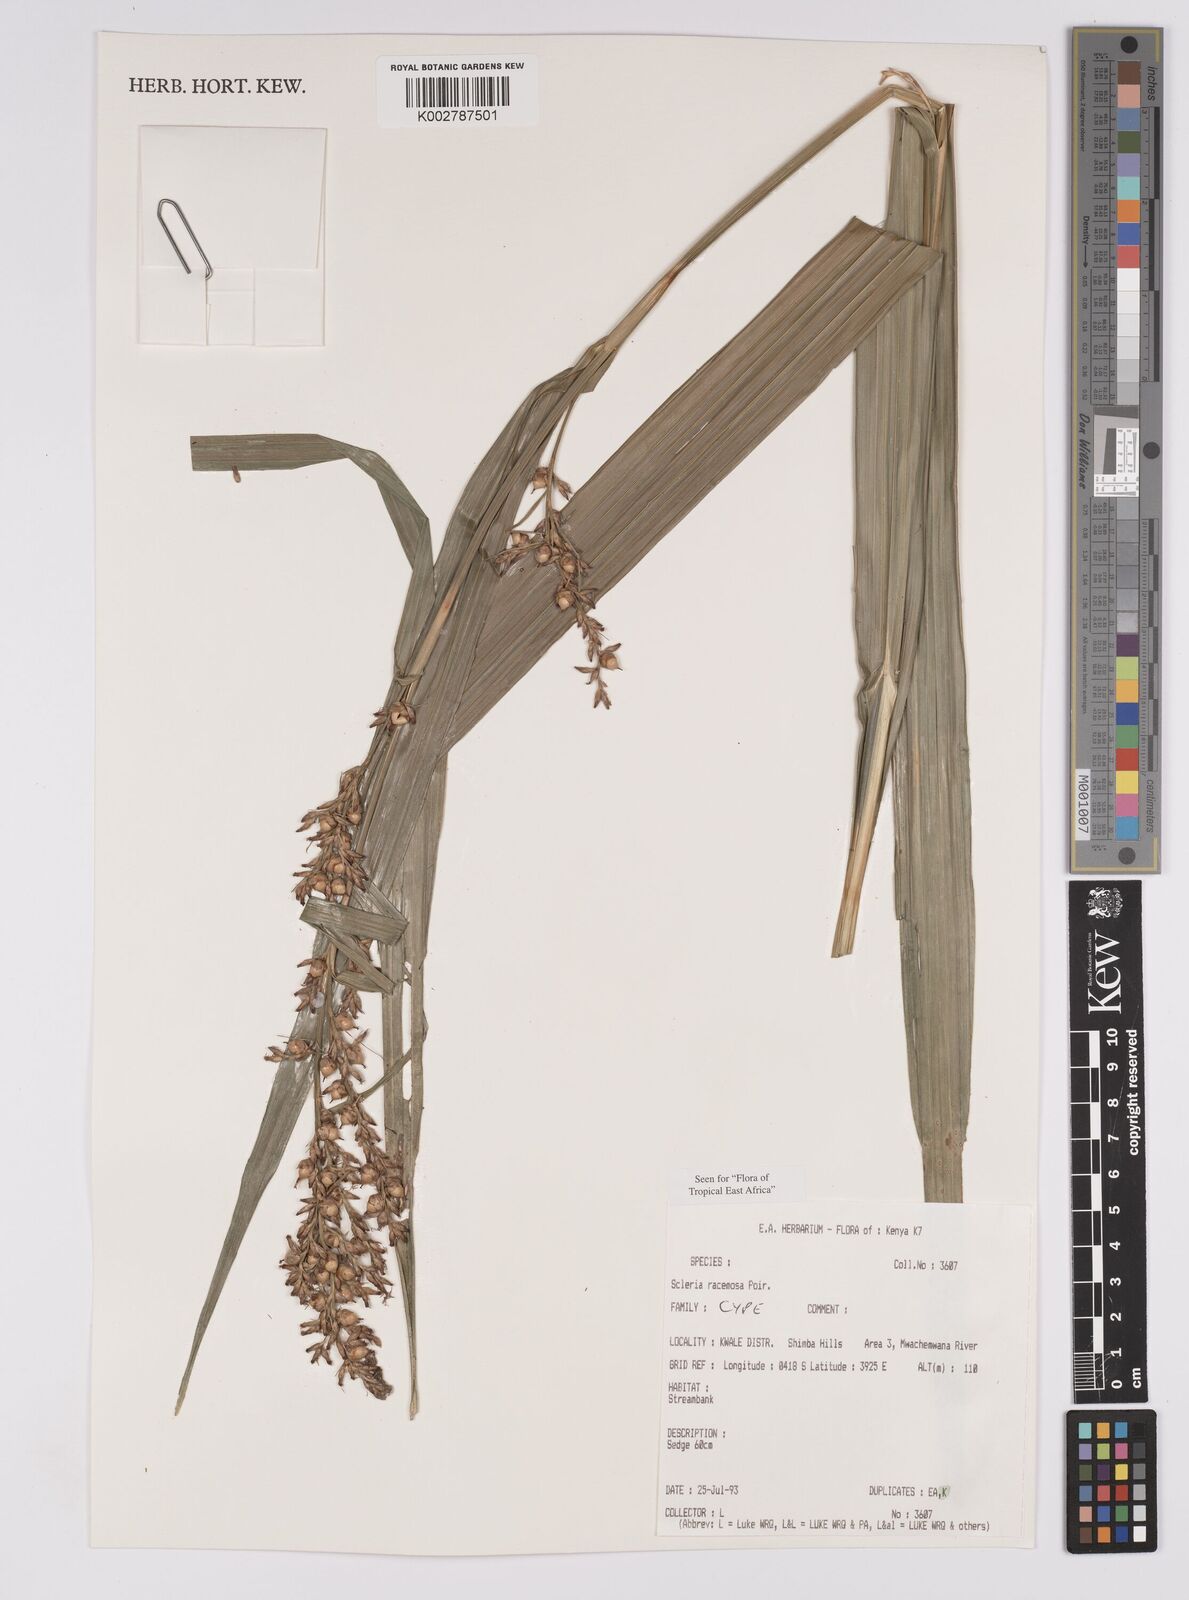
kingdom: Plantae
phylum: Tracheophyta
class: Liliopsida
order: Poales
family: Cyperaceae
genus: Scleria
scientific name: Scleria racemosa
